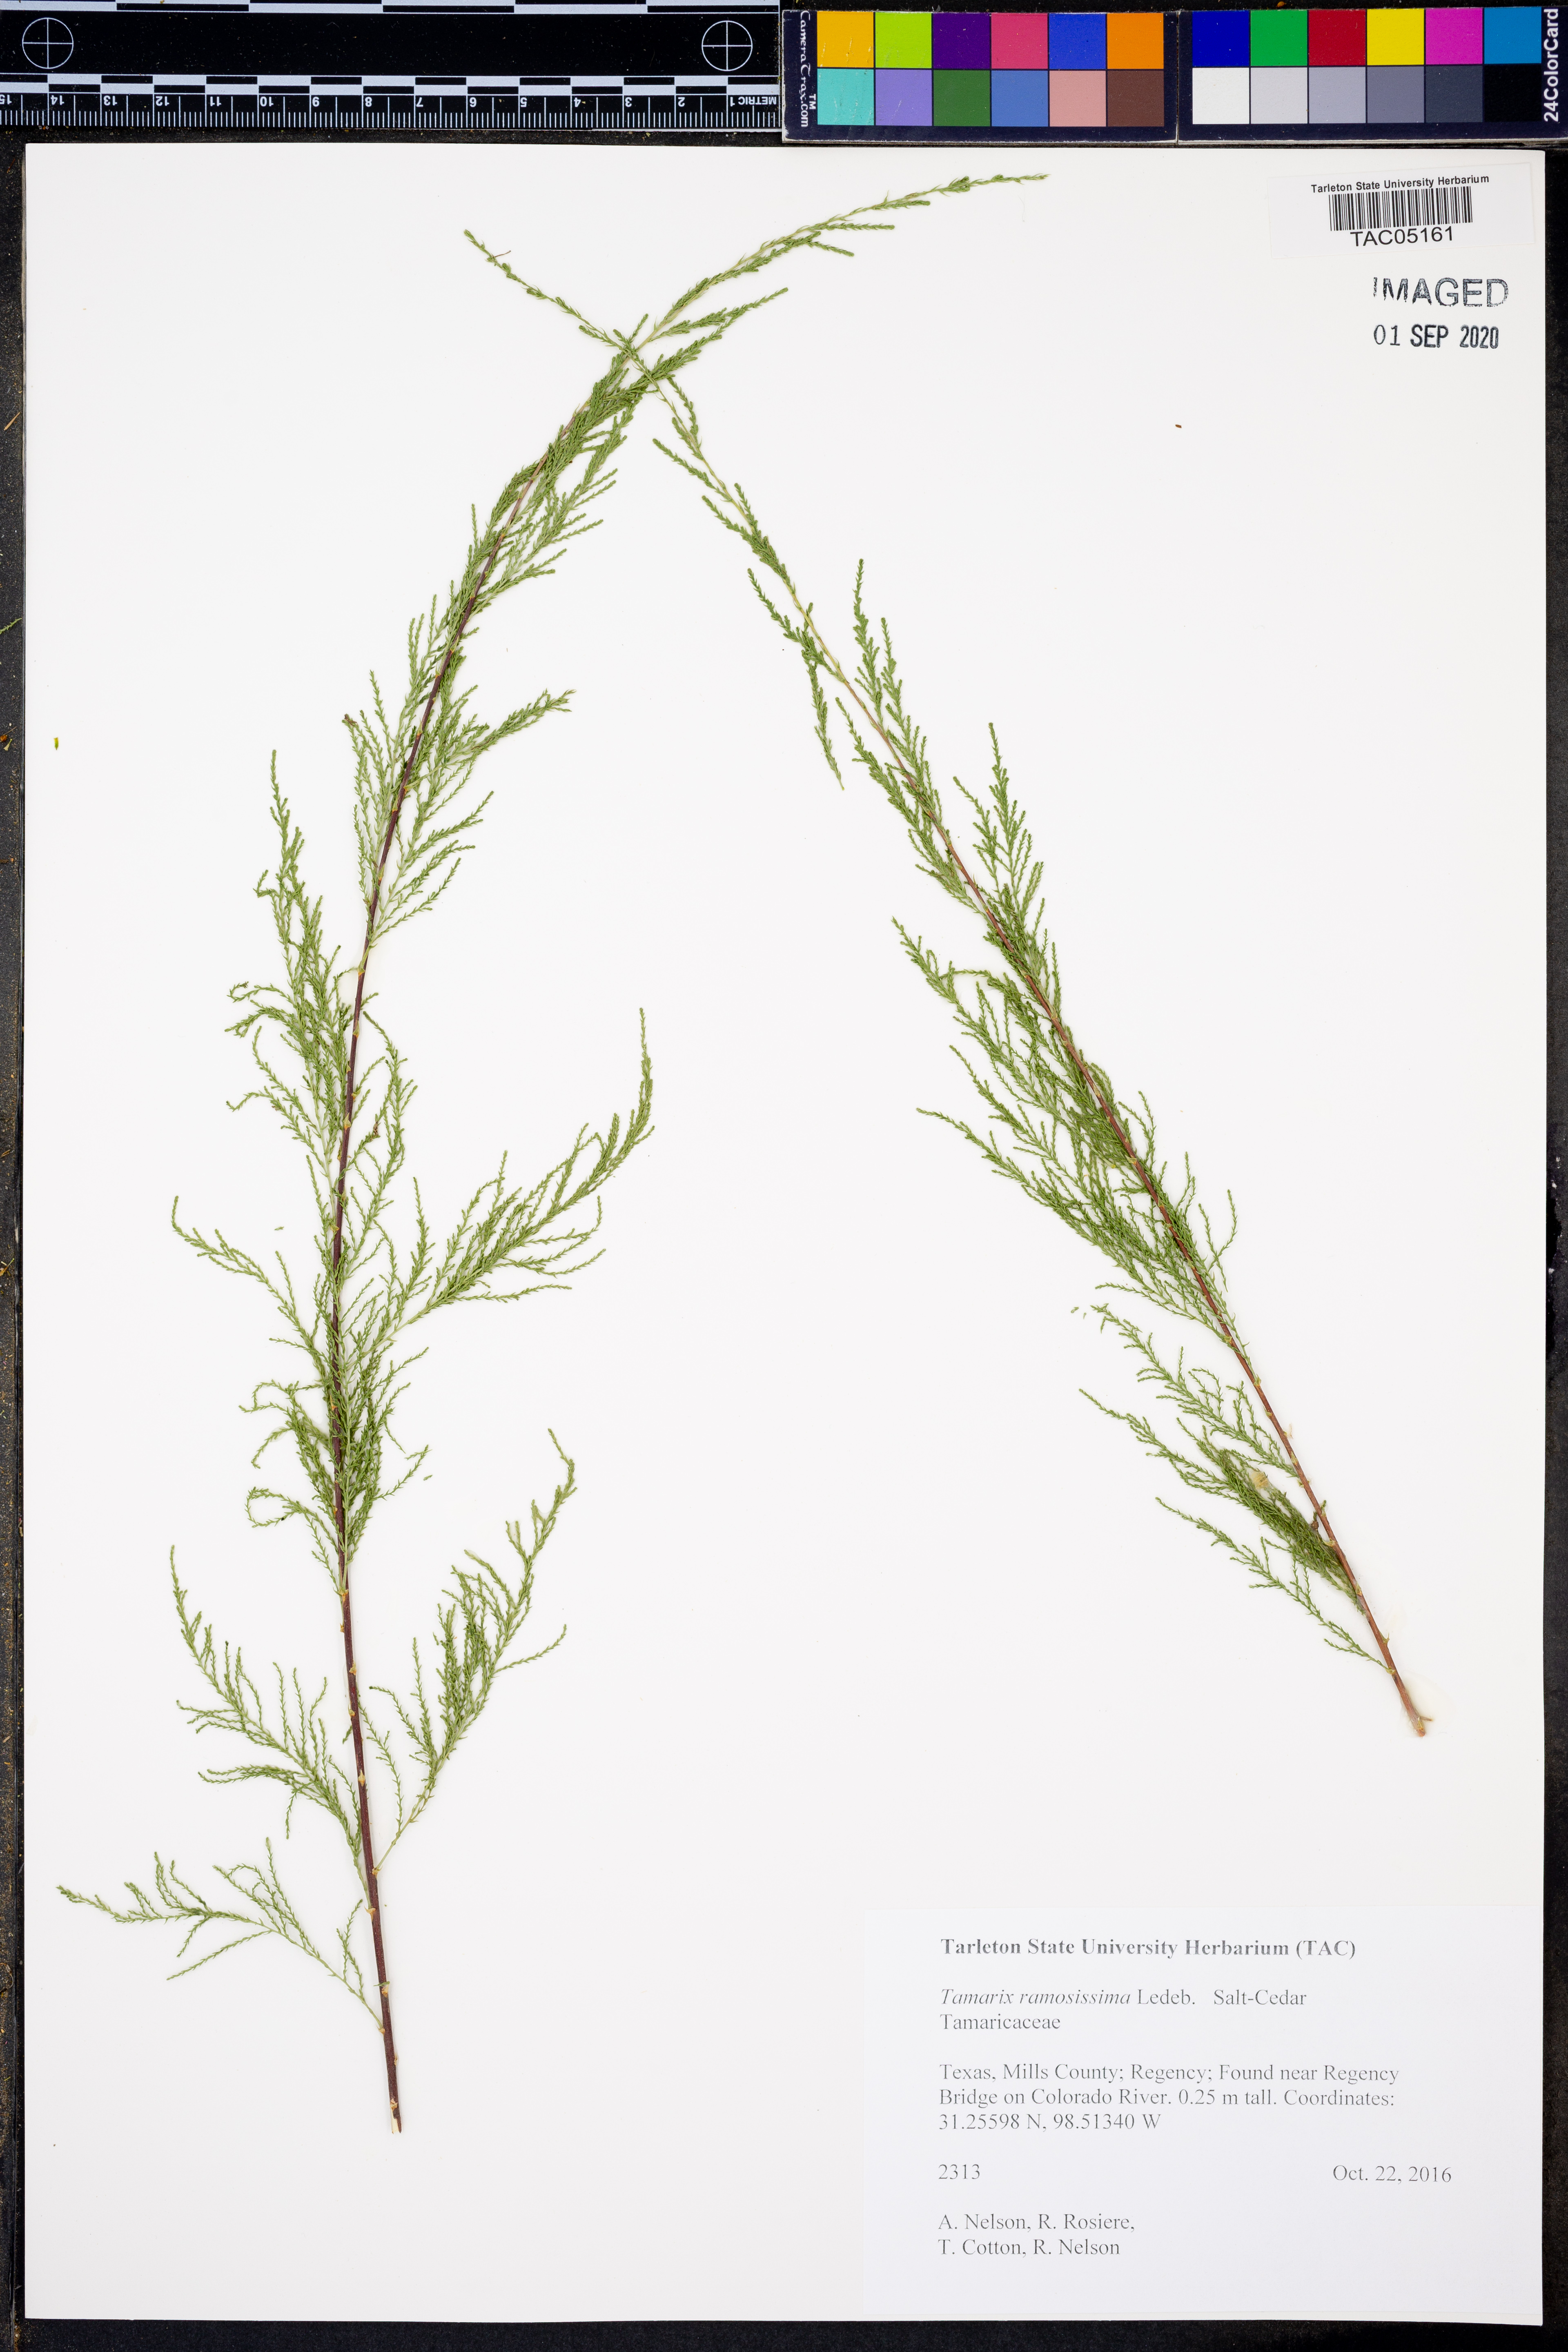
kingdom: Plantae
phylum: Tracheophyta
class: Magnoliopsida
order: Caryophyllales
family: Tamaricaceae
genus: Tamarix
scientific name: Tamarix ramosissima
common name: Pink tamarisk
